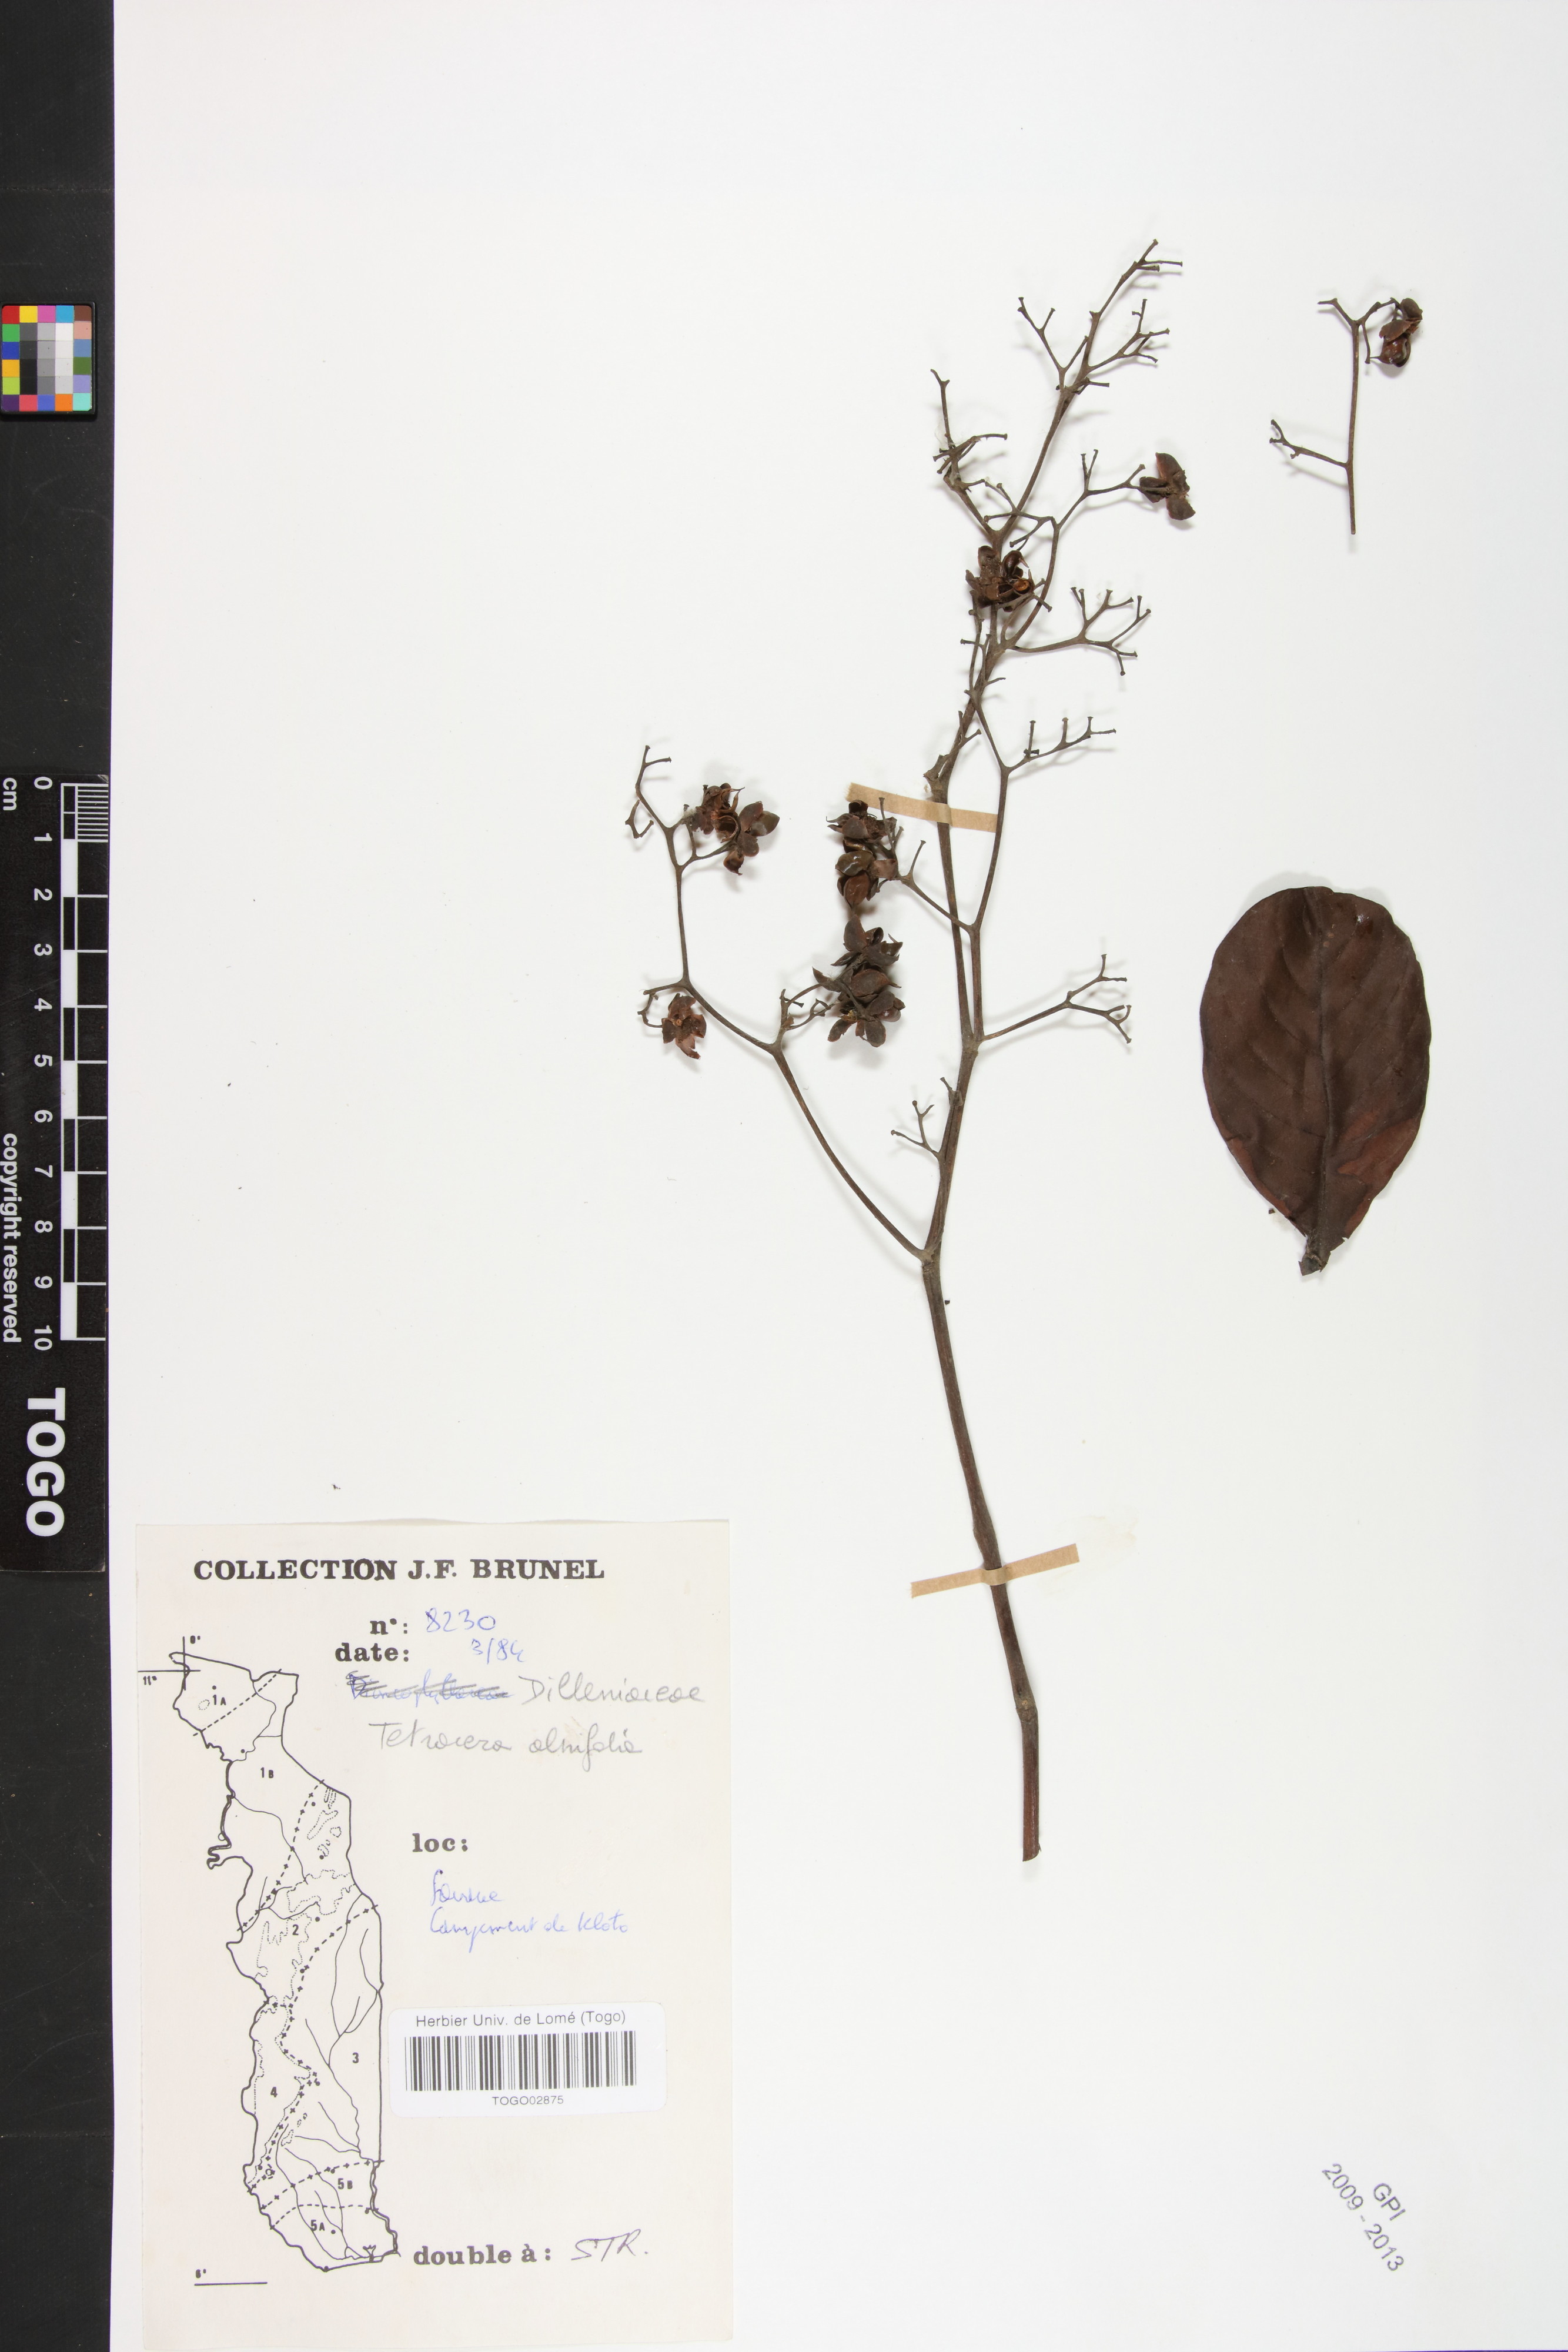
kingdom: Plantae
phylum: Tracheophyta
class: Magnoliopsida
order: Dilleniales
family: Dilleniaceae
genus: Tetracera
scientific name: Tetracera alnifolia
